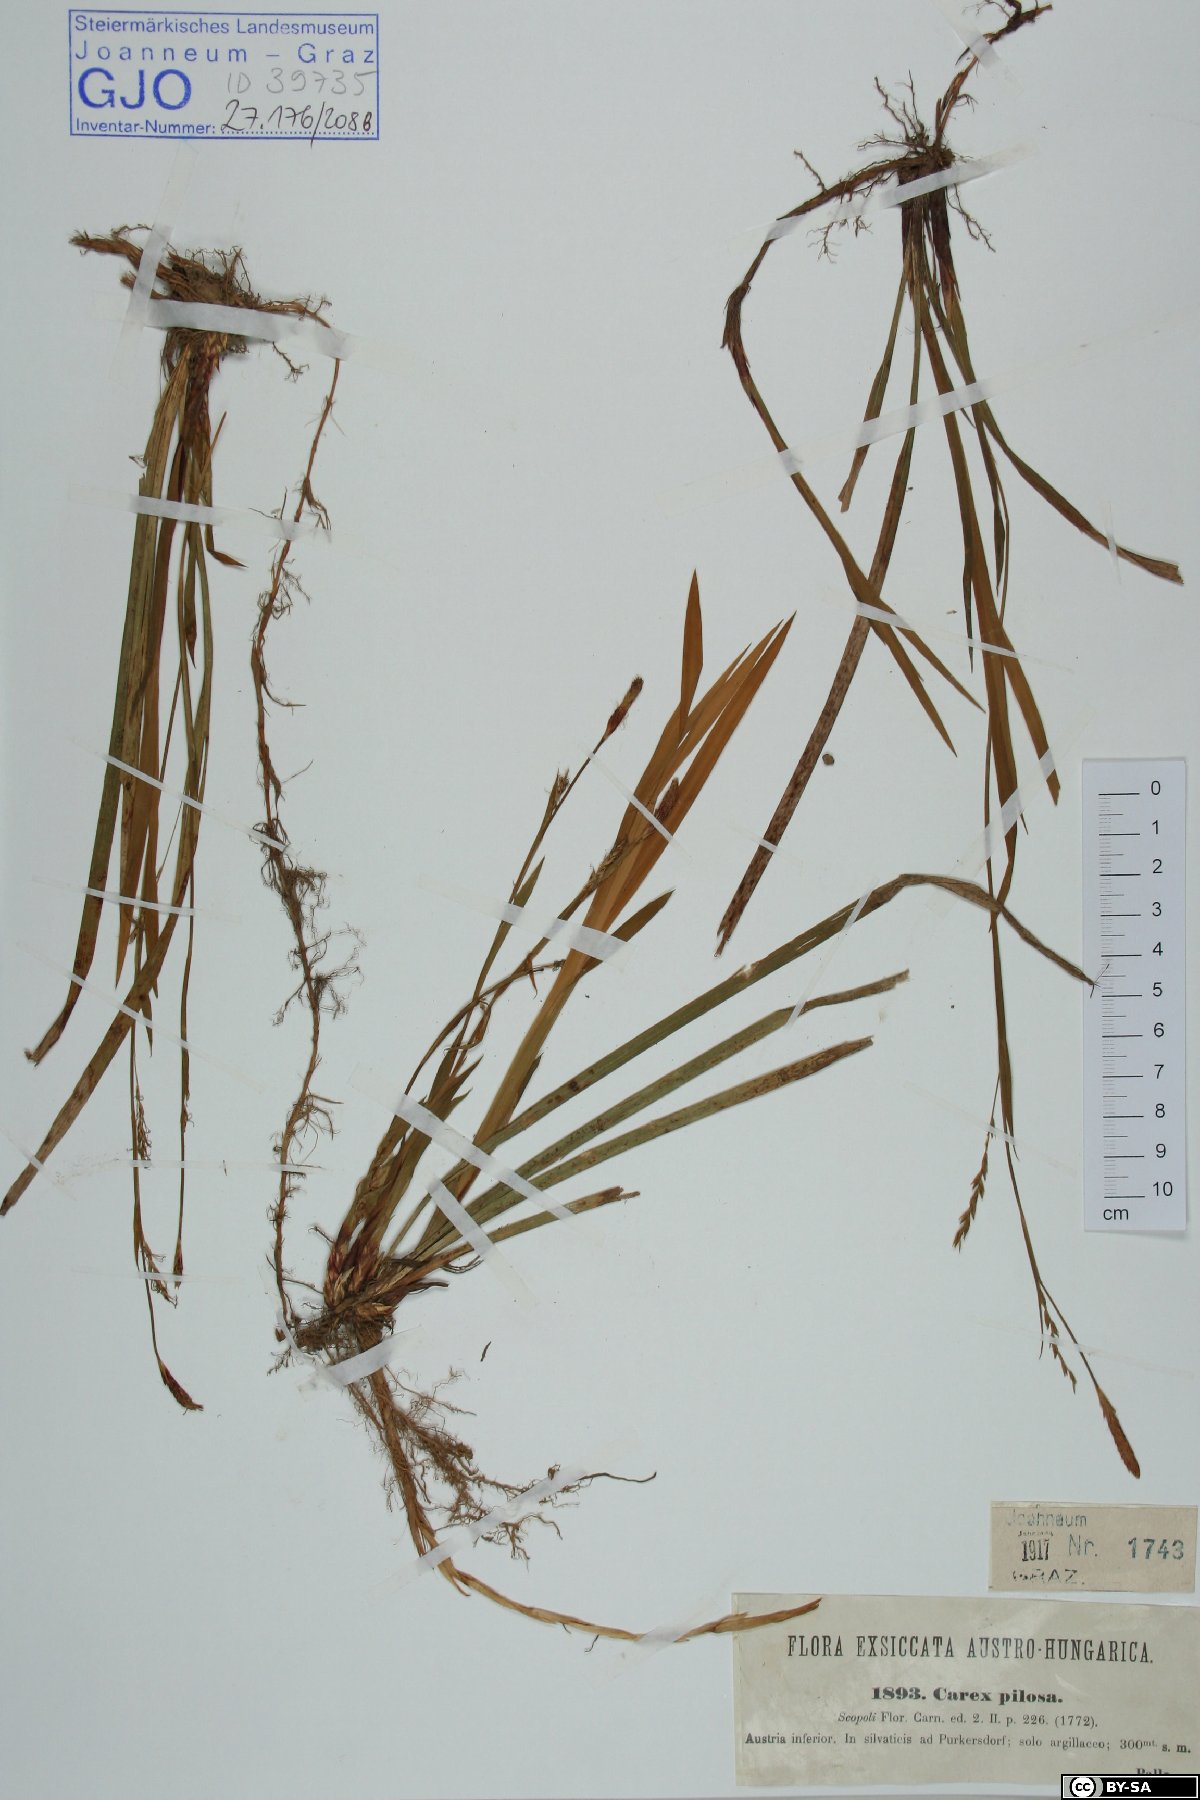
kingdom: Plantae
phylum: Tracheophyta
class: Liliopsida
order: Poales
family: Cyperaceae
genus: Carex
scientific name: Carex pilosa
